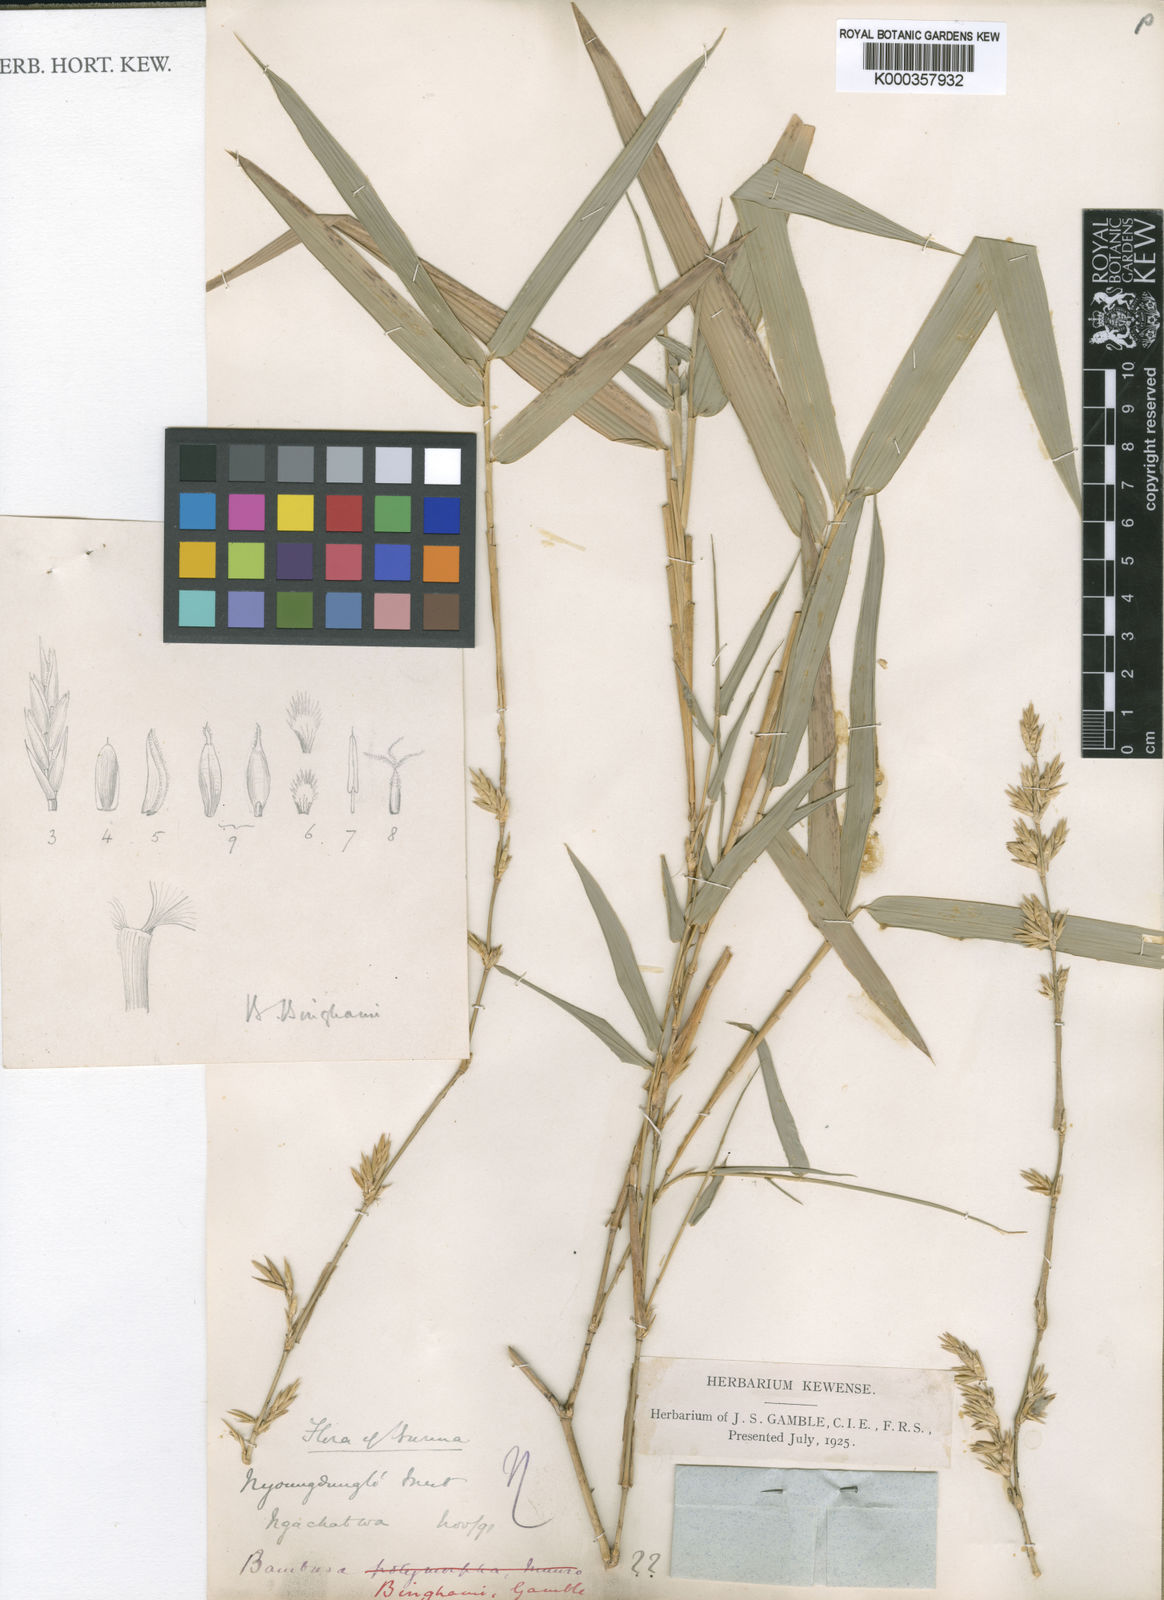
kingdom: Plantae
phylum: Tracheophyta
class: Liliopsida
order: Poales
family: Poaceae
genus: Bambusa
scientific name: Bambusa binghamii
